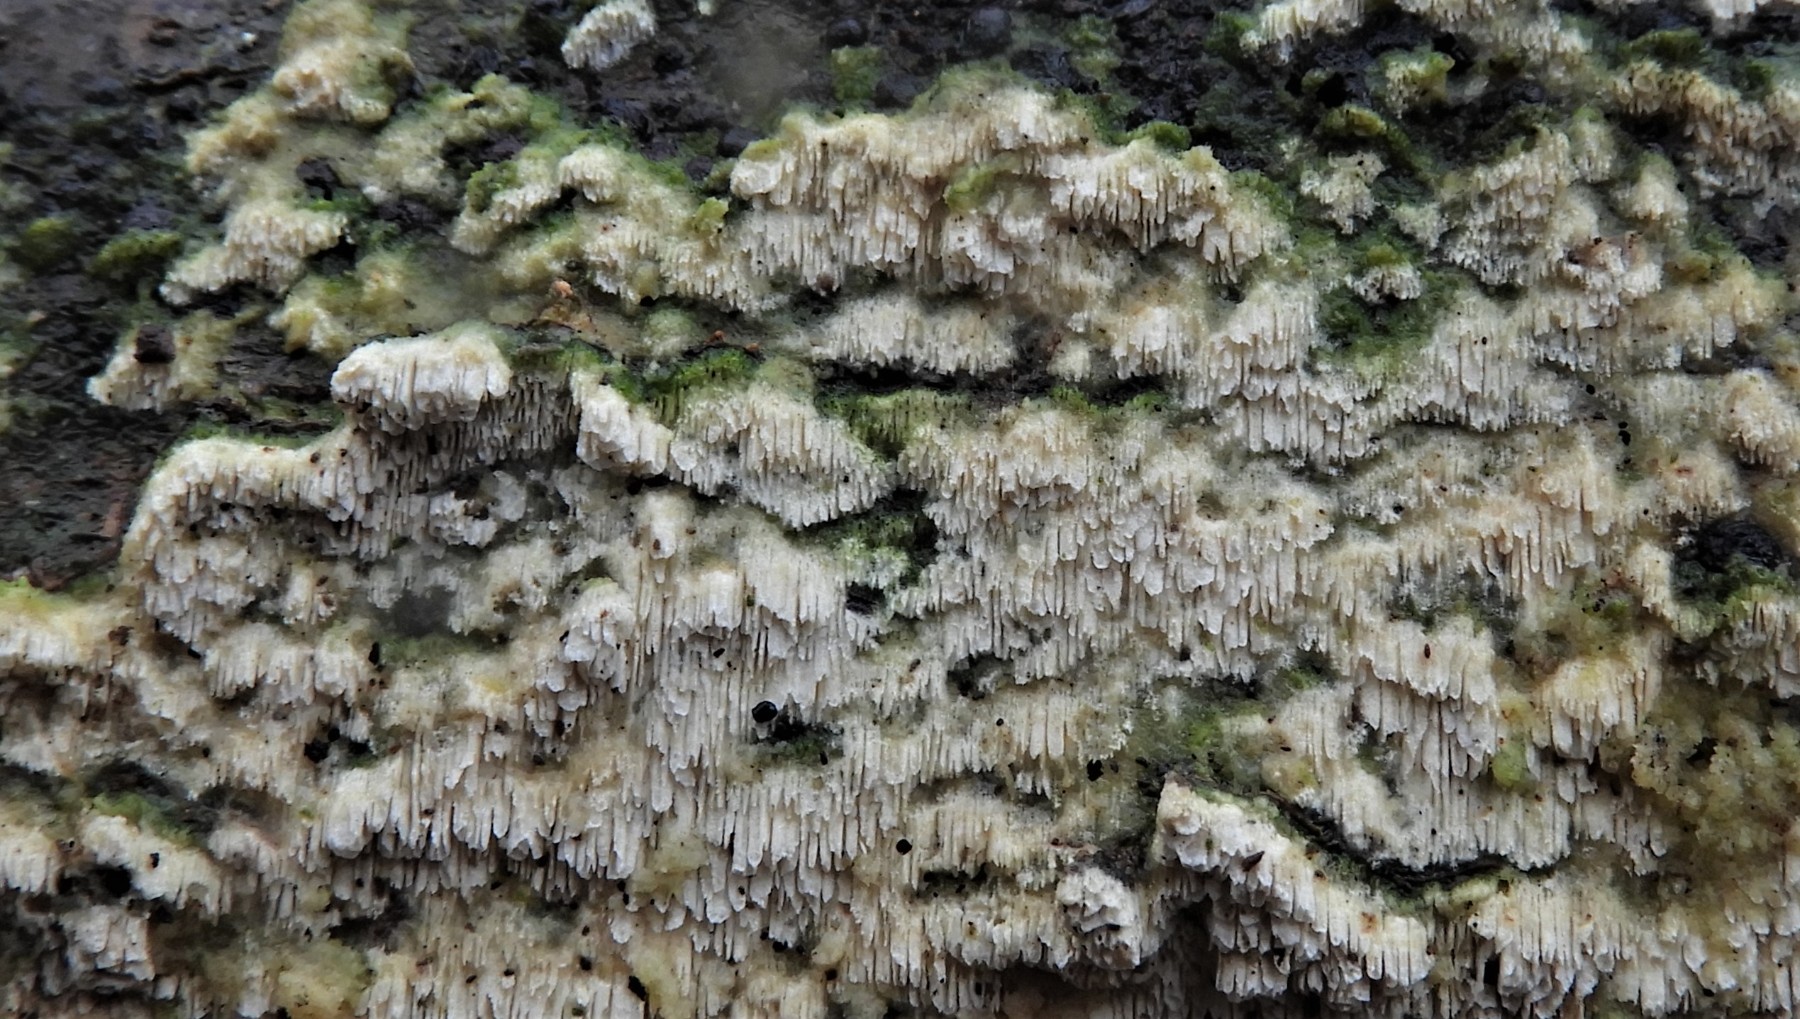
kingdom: Fungi
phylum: Basidiomycota
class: Agaricomycetes
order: Hymenochaetales
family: Schizoporaceae
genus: Schizopora
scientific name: Schizopora paradoxa
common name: hvid tandsvamp
